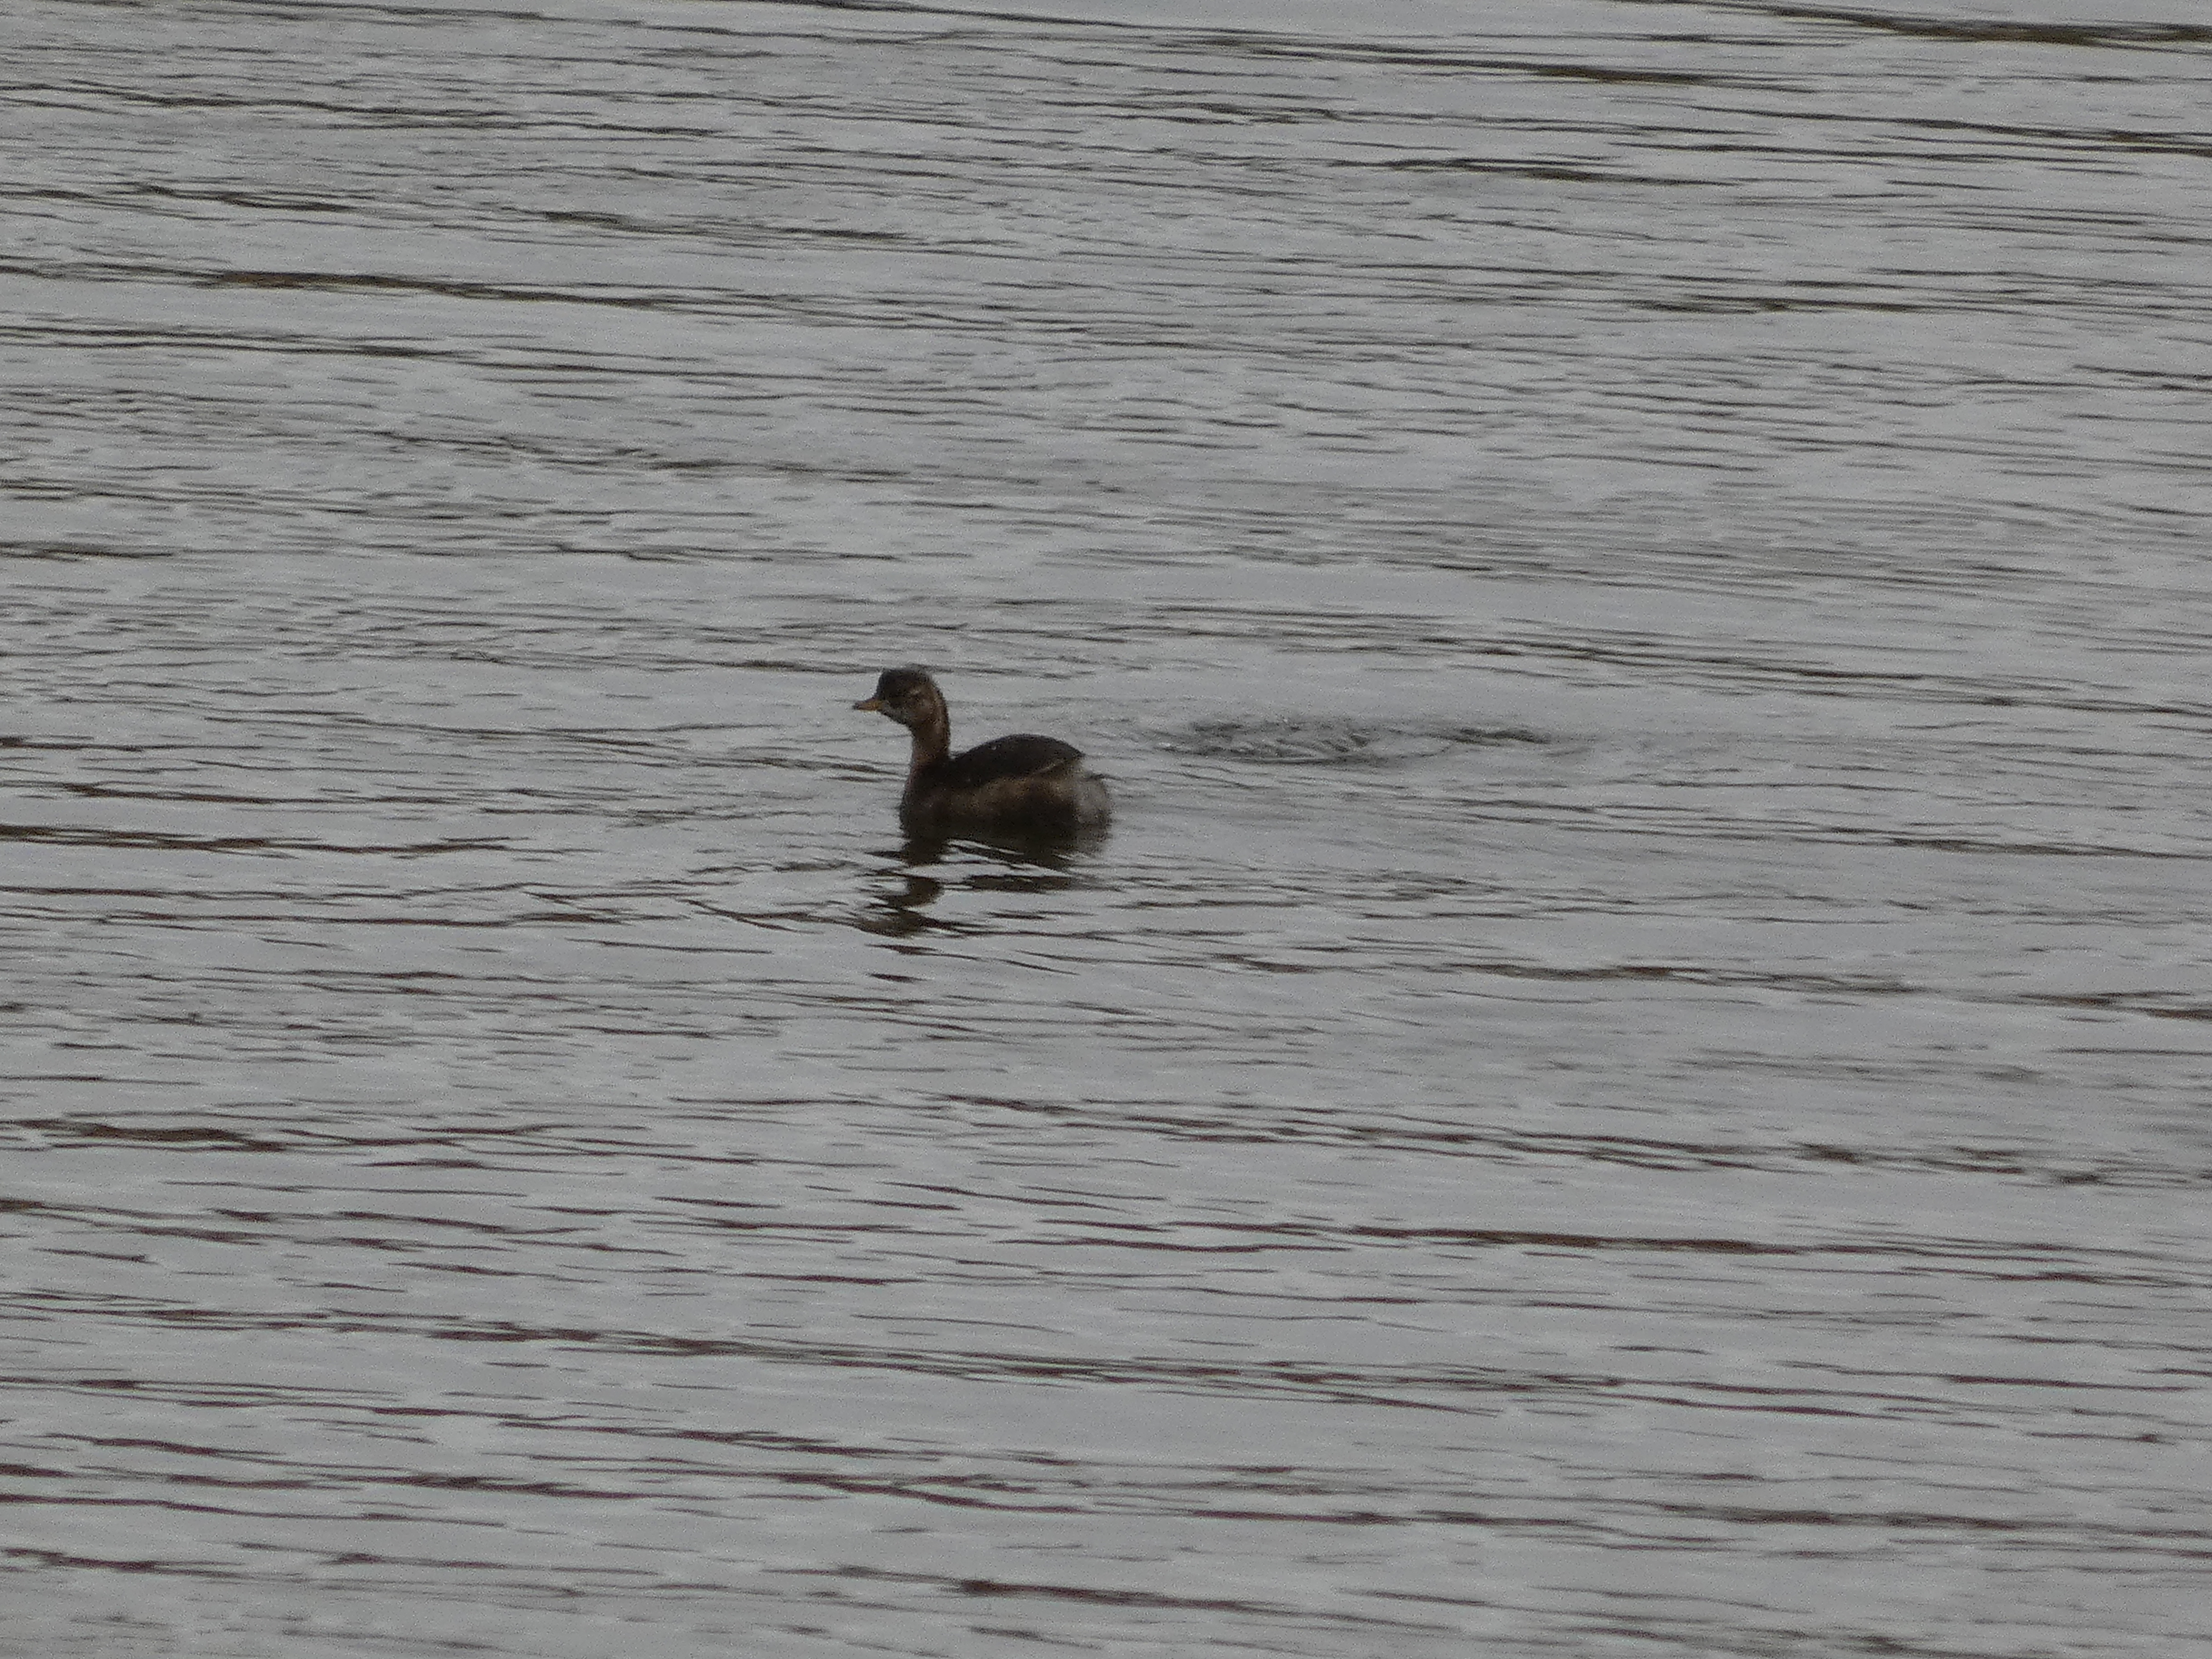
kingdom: Animalia
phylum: Chordata
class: Aves
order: Podicipediformes
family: Podicipedidae
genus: Tachybaptus
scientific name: Tachybaptus ruficollis
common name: Lille lappedykker
